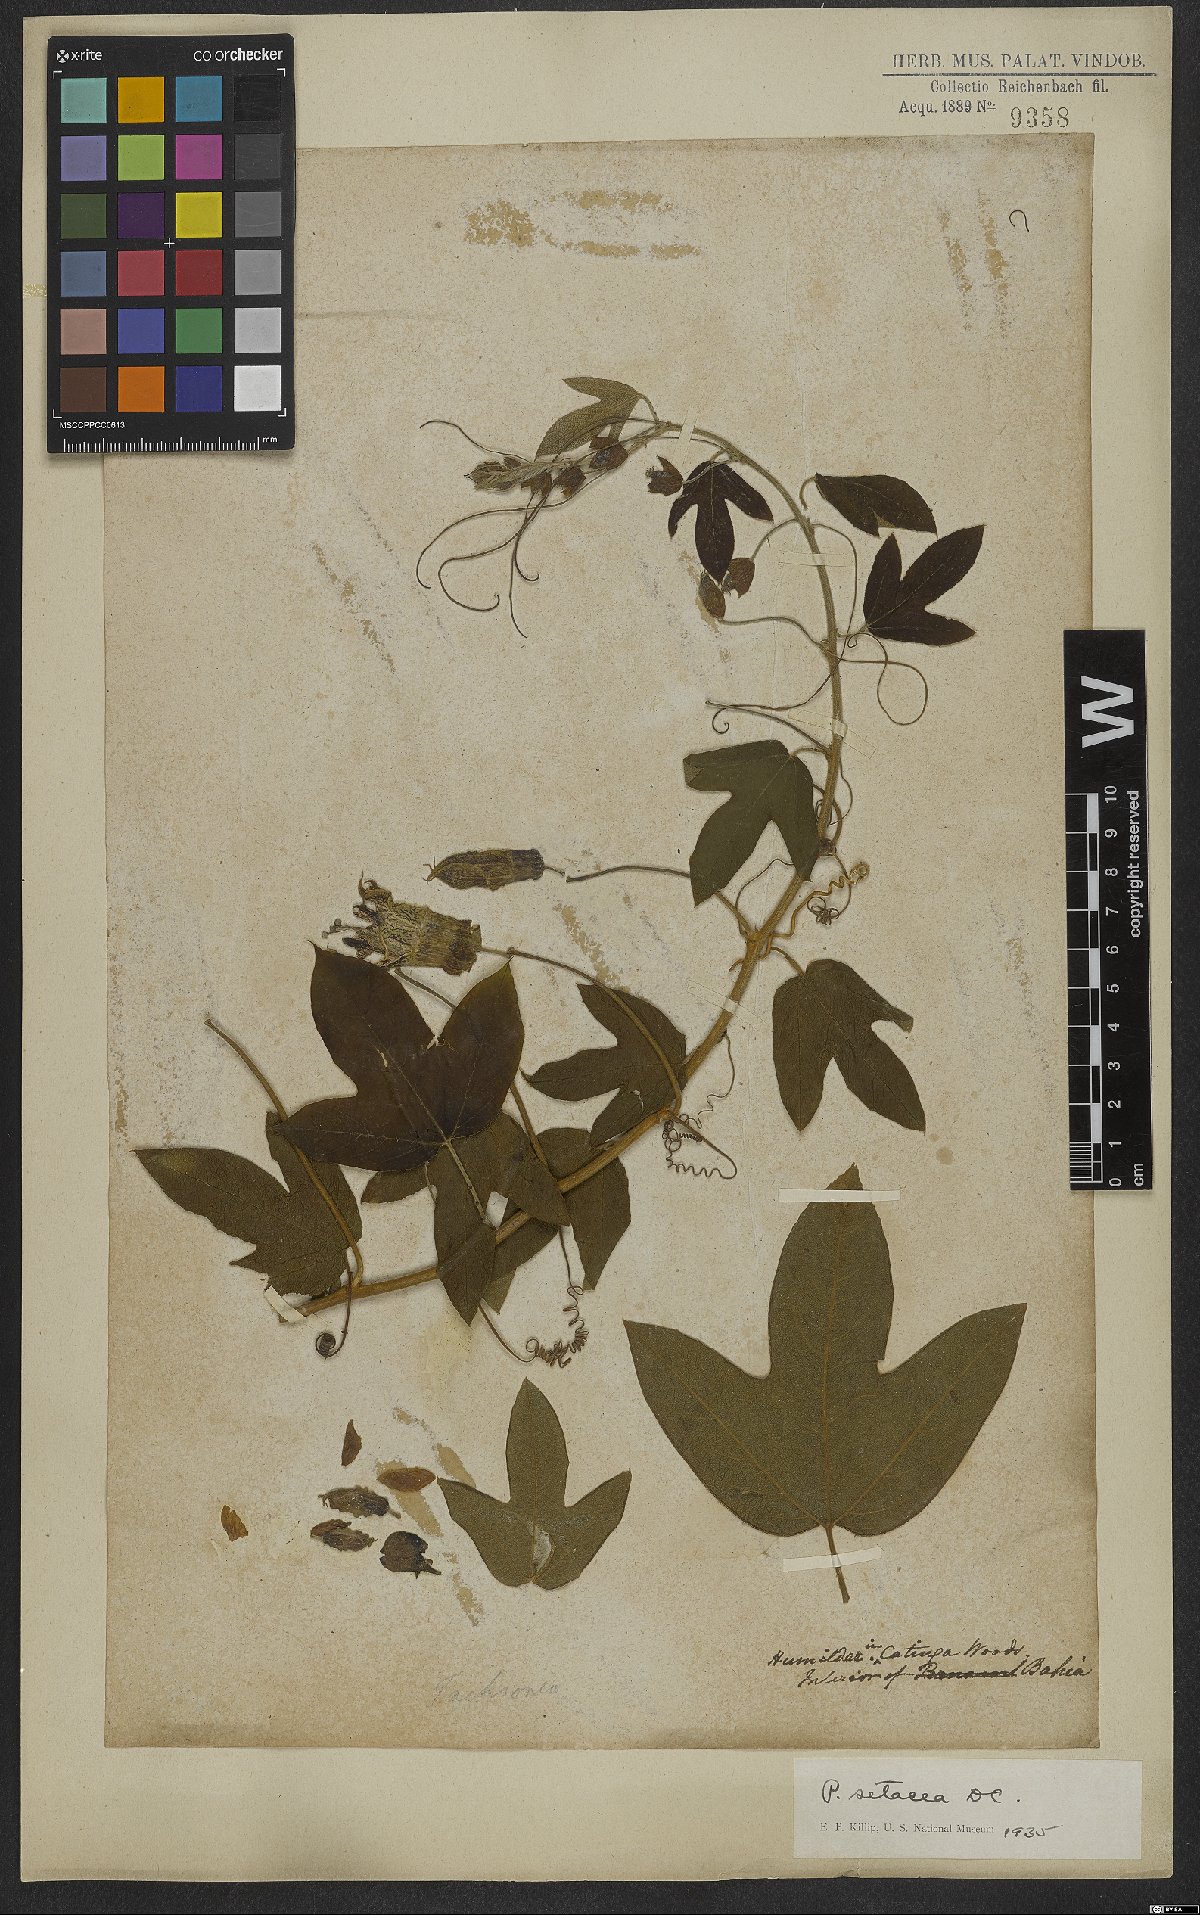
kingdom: Plantae
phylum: Tracheophyta
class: Magnoliopsida
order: Malpighiales
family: Passifloraceae
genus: Passiflora
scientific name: Passiflora setacea
